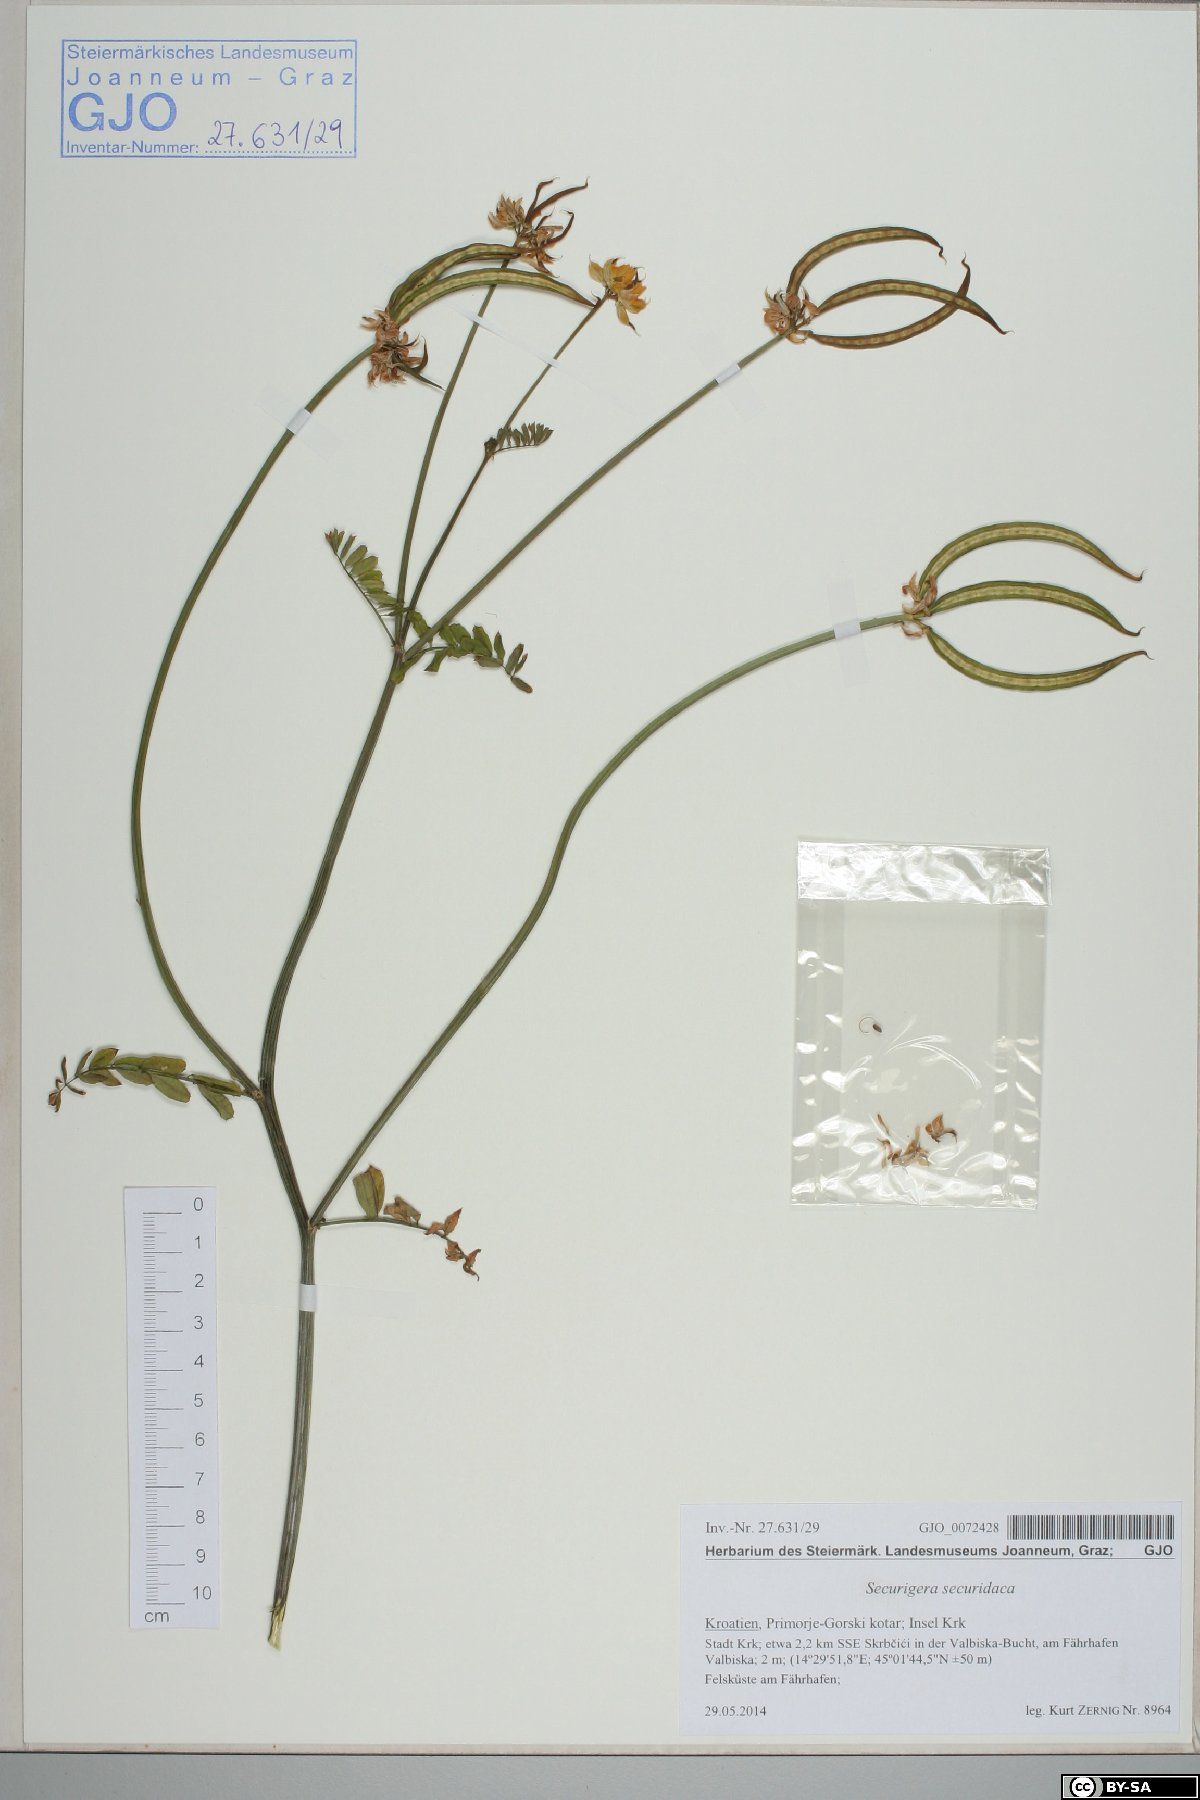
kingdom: Plantae
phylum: Tracheophyta
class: Magnoliopsida
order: Fabales
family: Fabaceae
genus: Coronilla
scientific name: Coronilla securidaca
